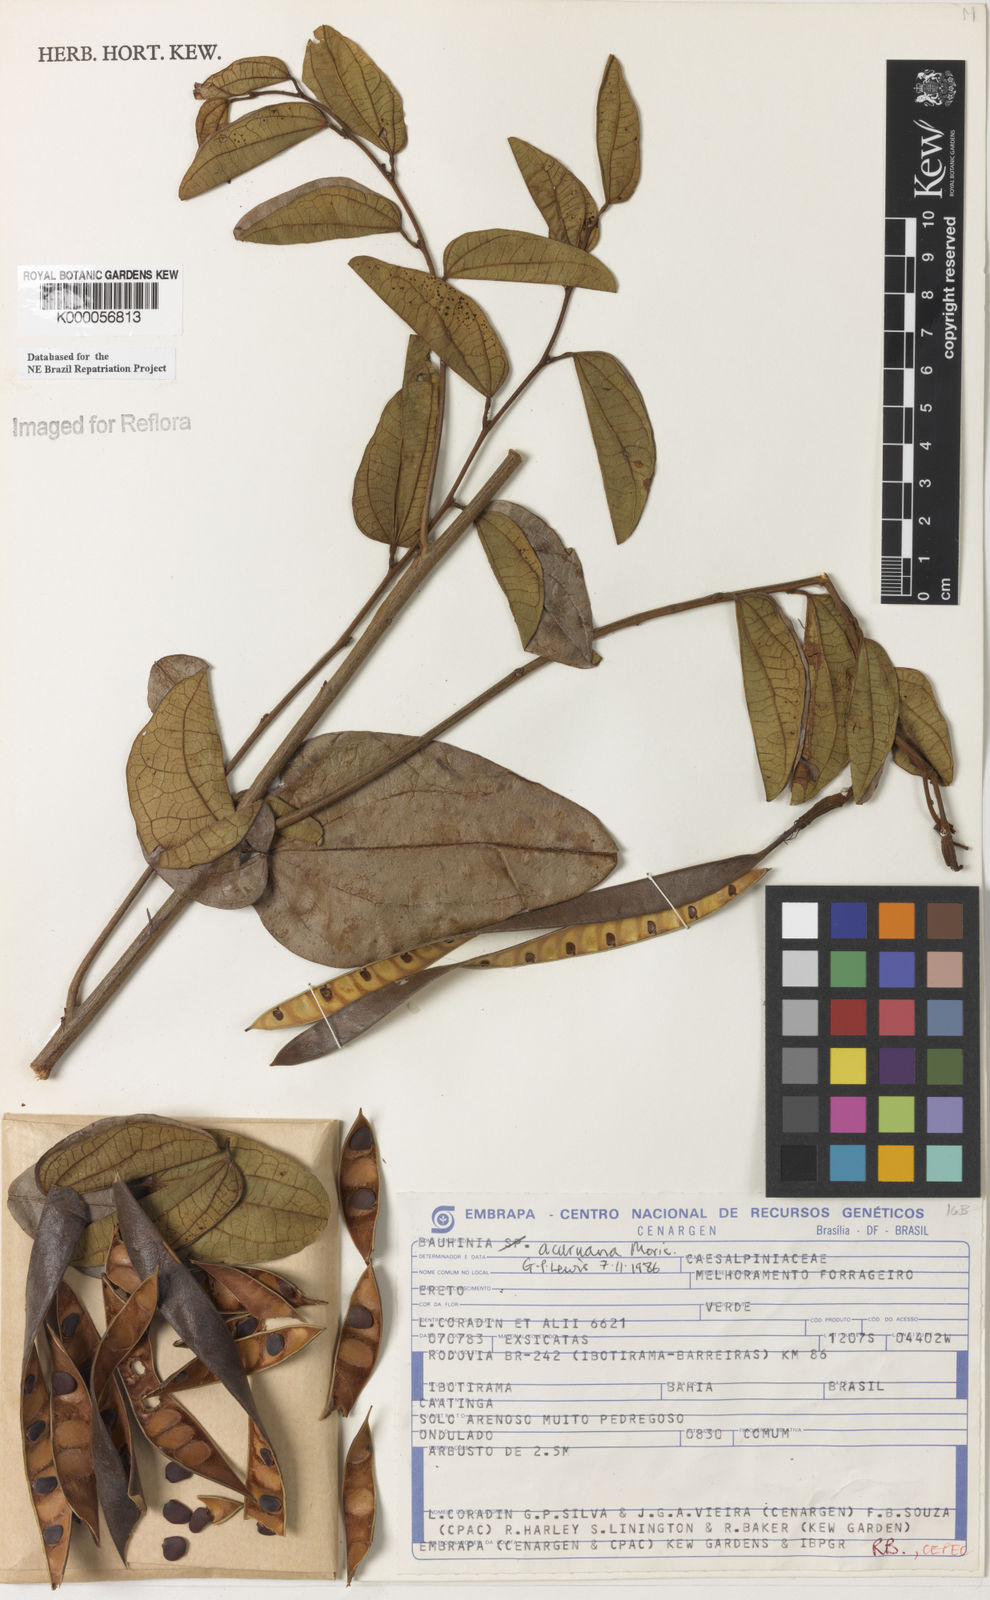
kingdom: Plantae
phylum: Tracheophyta
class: Magnoliopsida
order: Fabales
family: Fabaceae
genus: Bauhinia
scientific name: Bauhinia acuruana
